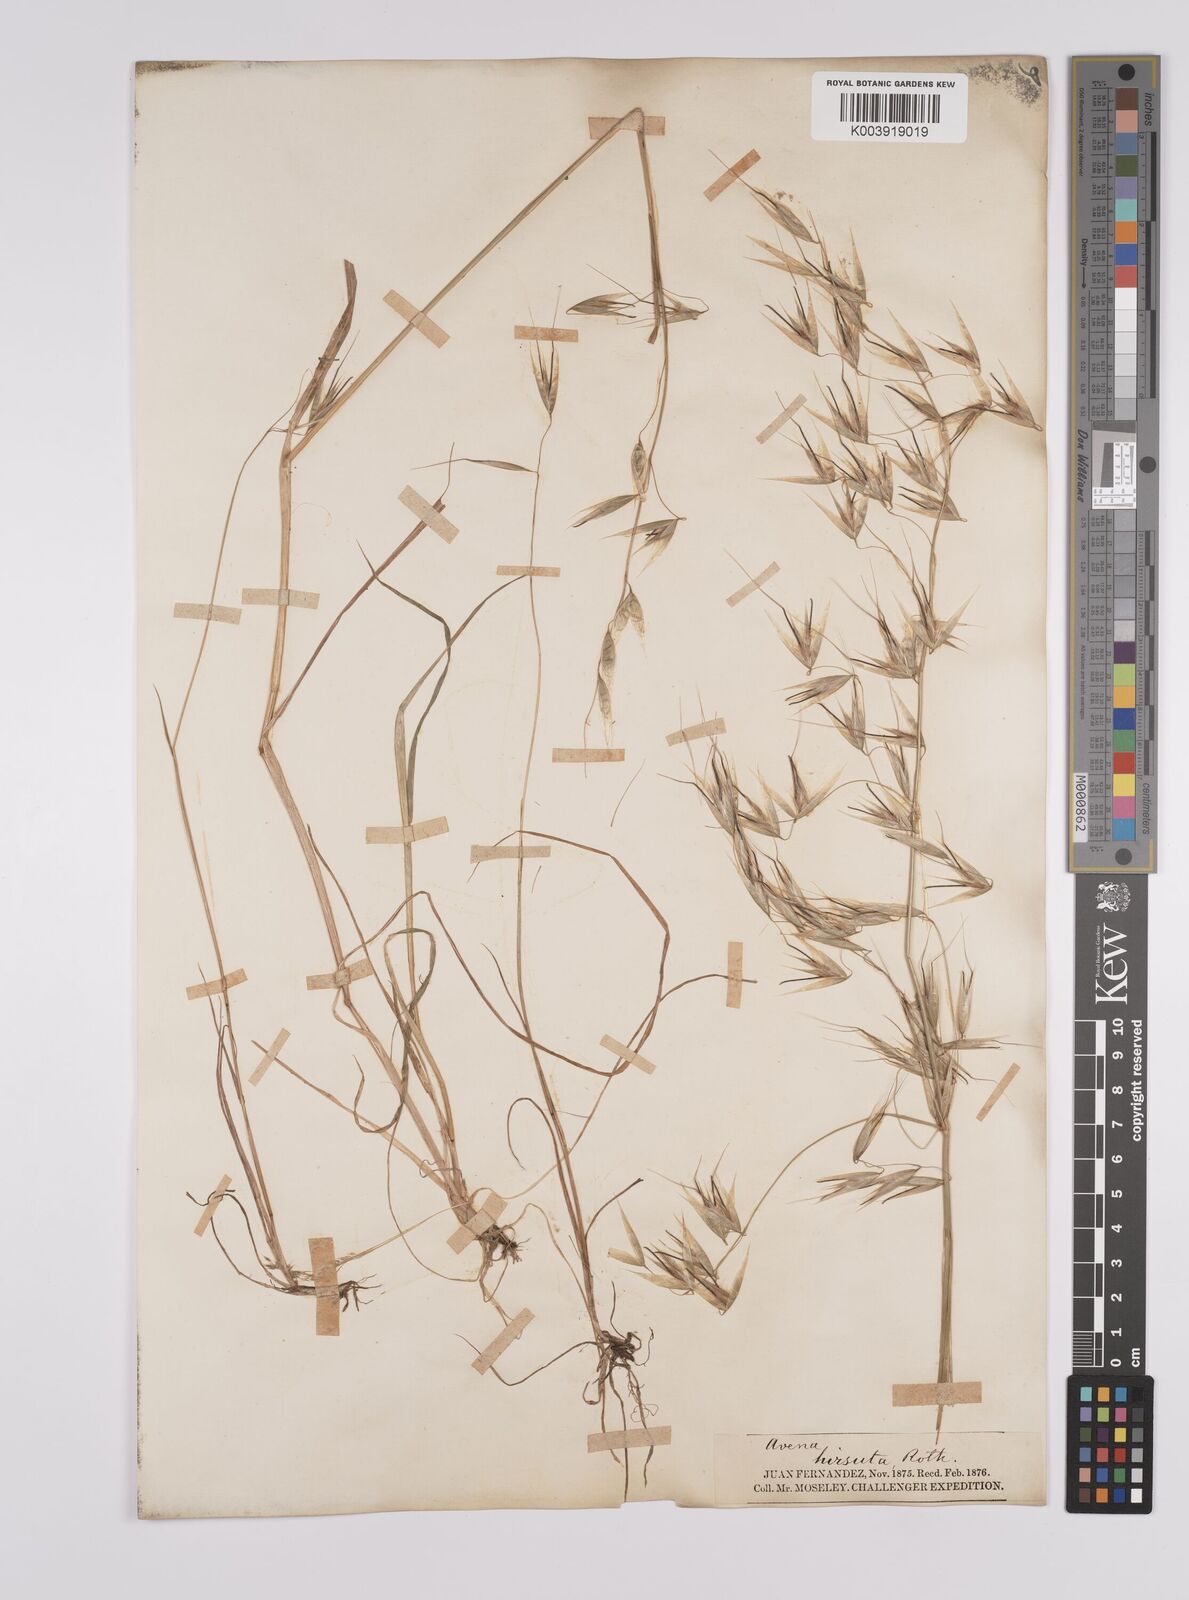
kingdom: Plantae
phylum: Tracheophyta
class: Liliopsida
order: Poales
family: Poaceae
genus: Avena
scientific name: Avena barbata
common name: Slender oat
